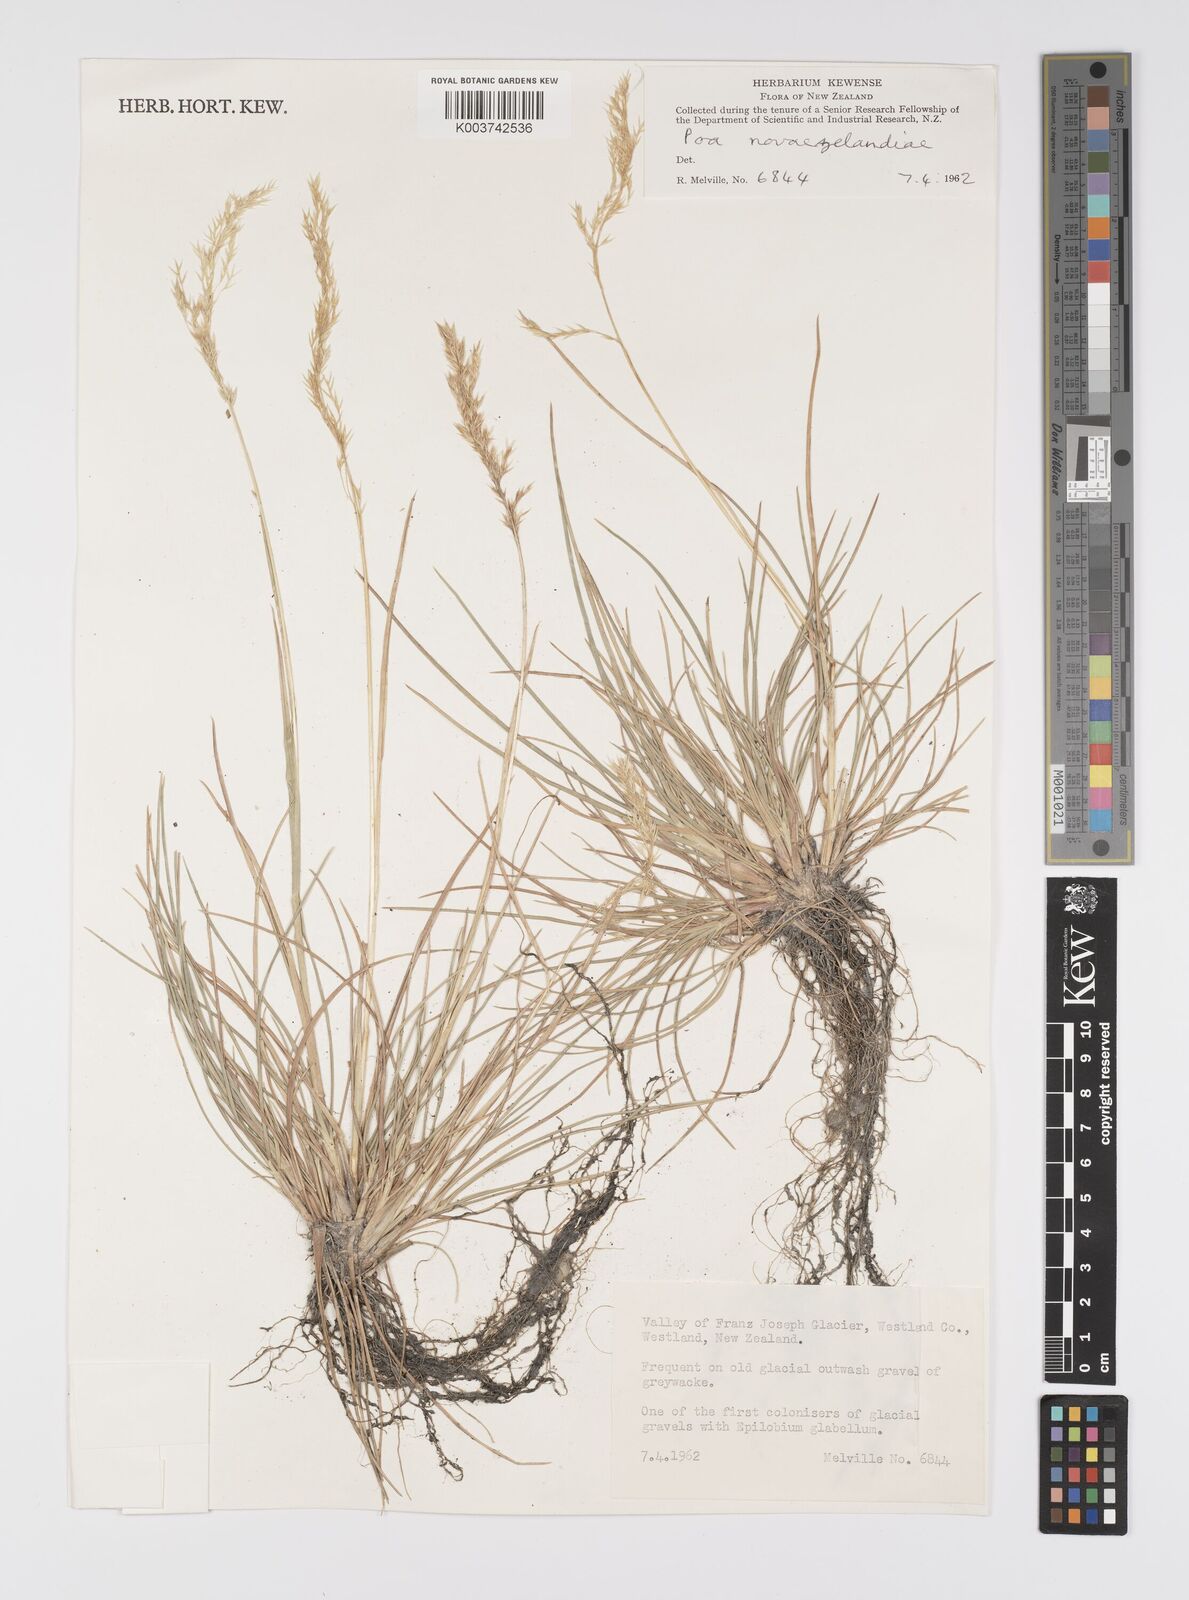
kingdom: Plantae
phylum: Tracheophyta
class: Liliopsida
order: Poales
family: Poaceae
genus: Poa
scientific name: Poa novae-zelandiae
